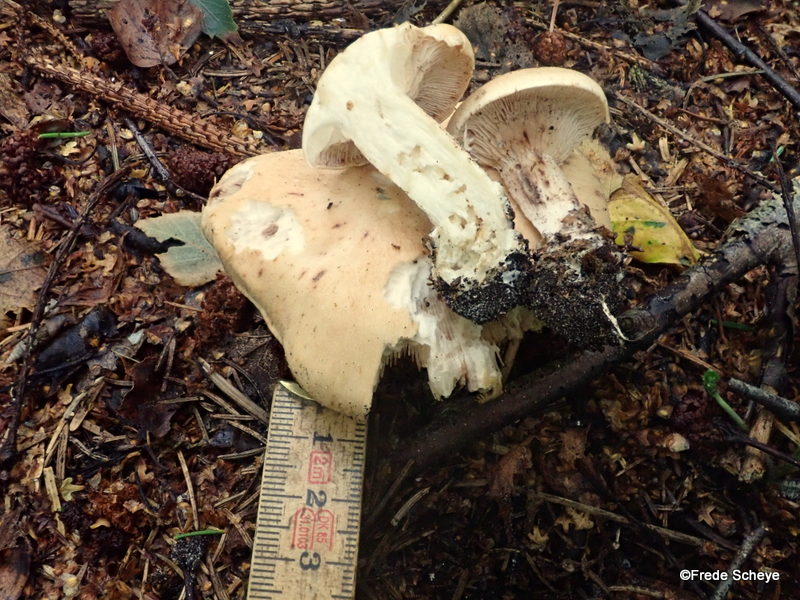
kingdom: Fungi
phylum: Basidiomycota
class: Agaricomycetes
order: Agaricales
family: Entolomataceae
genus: Clitopilus
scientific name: Clitopilus geminus
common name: kødfarvet troldhat
